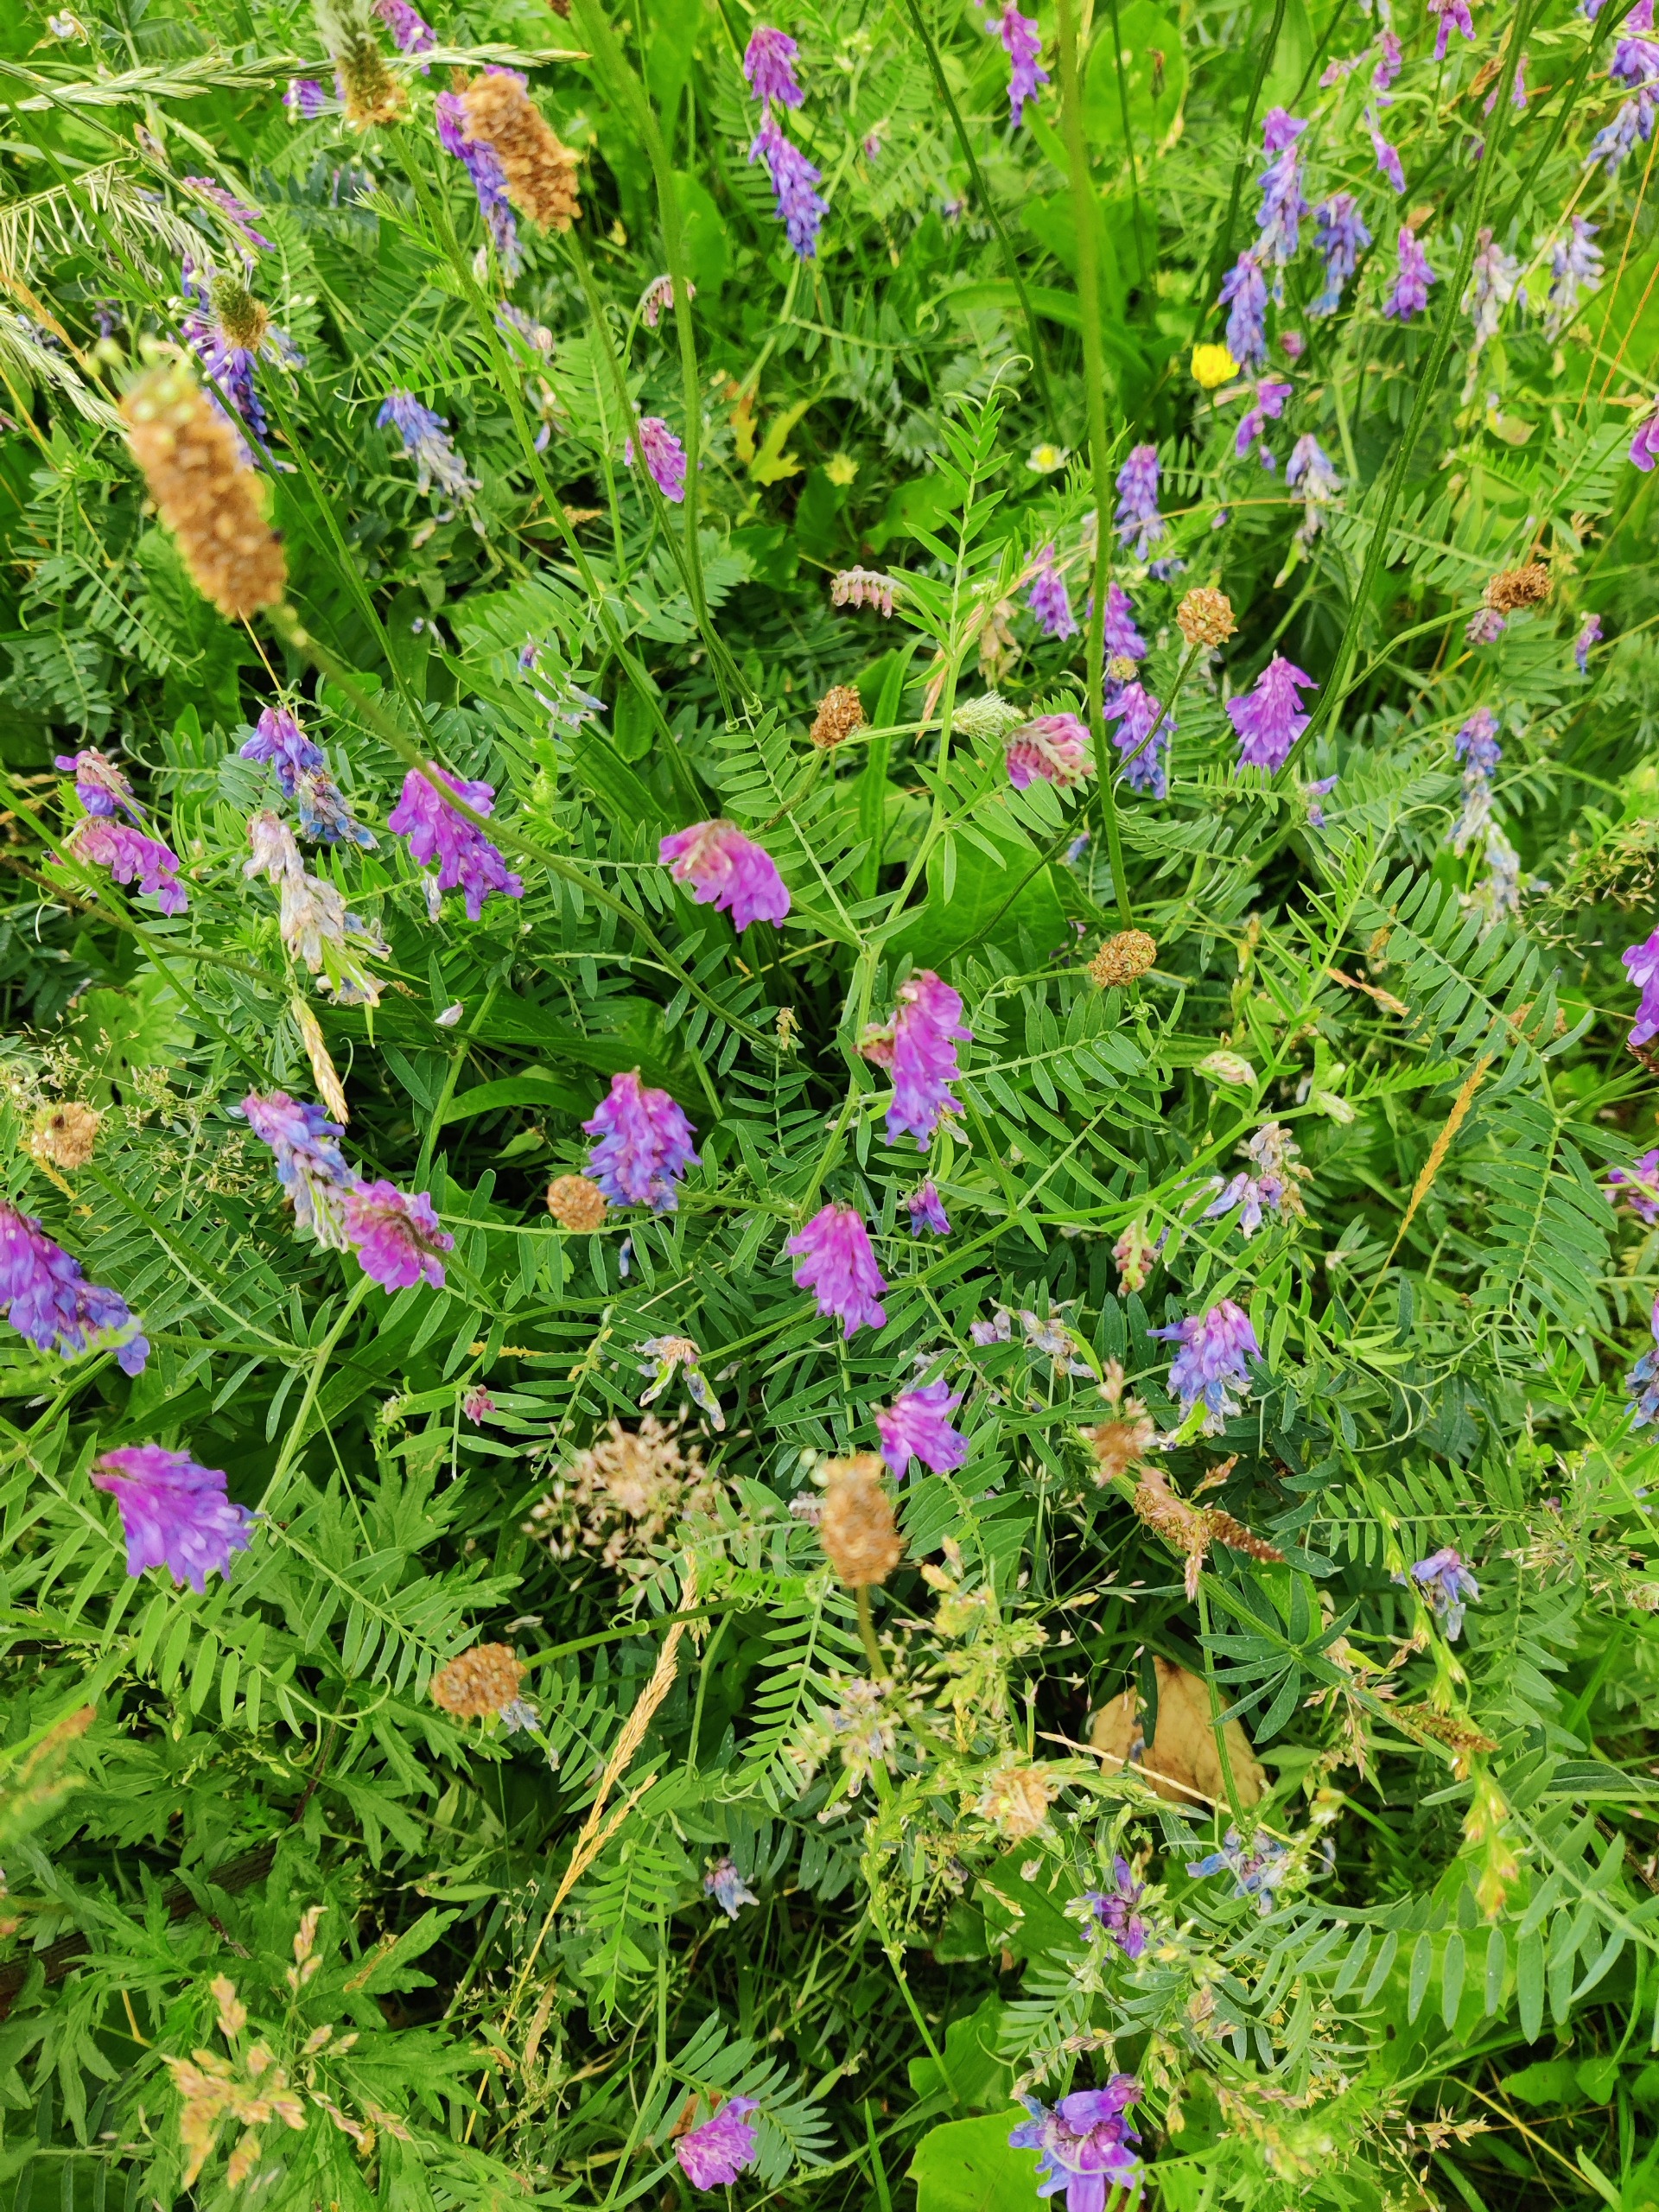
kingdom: Plantae
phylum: Tracheophyta
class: Magnoliopsida
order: Fabales
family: Fabaceae
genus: Vicia
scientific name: Vicia cracca
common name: Muse-vikke
